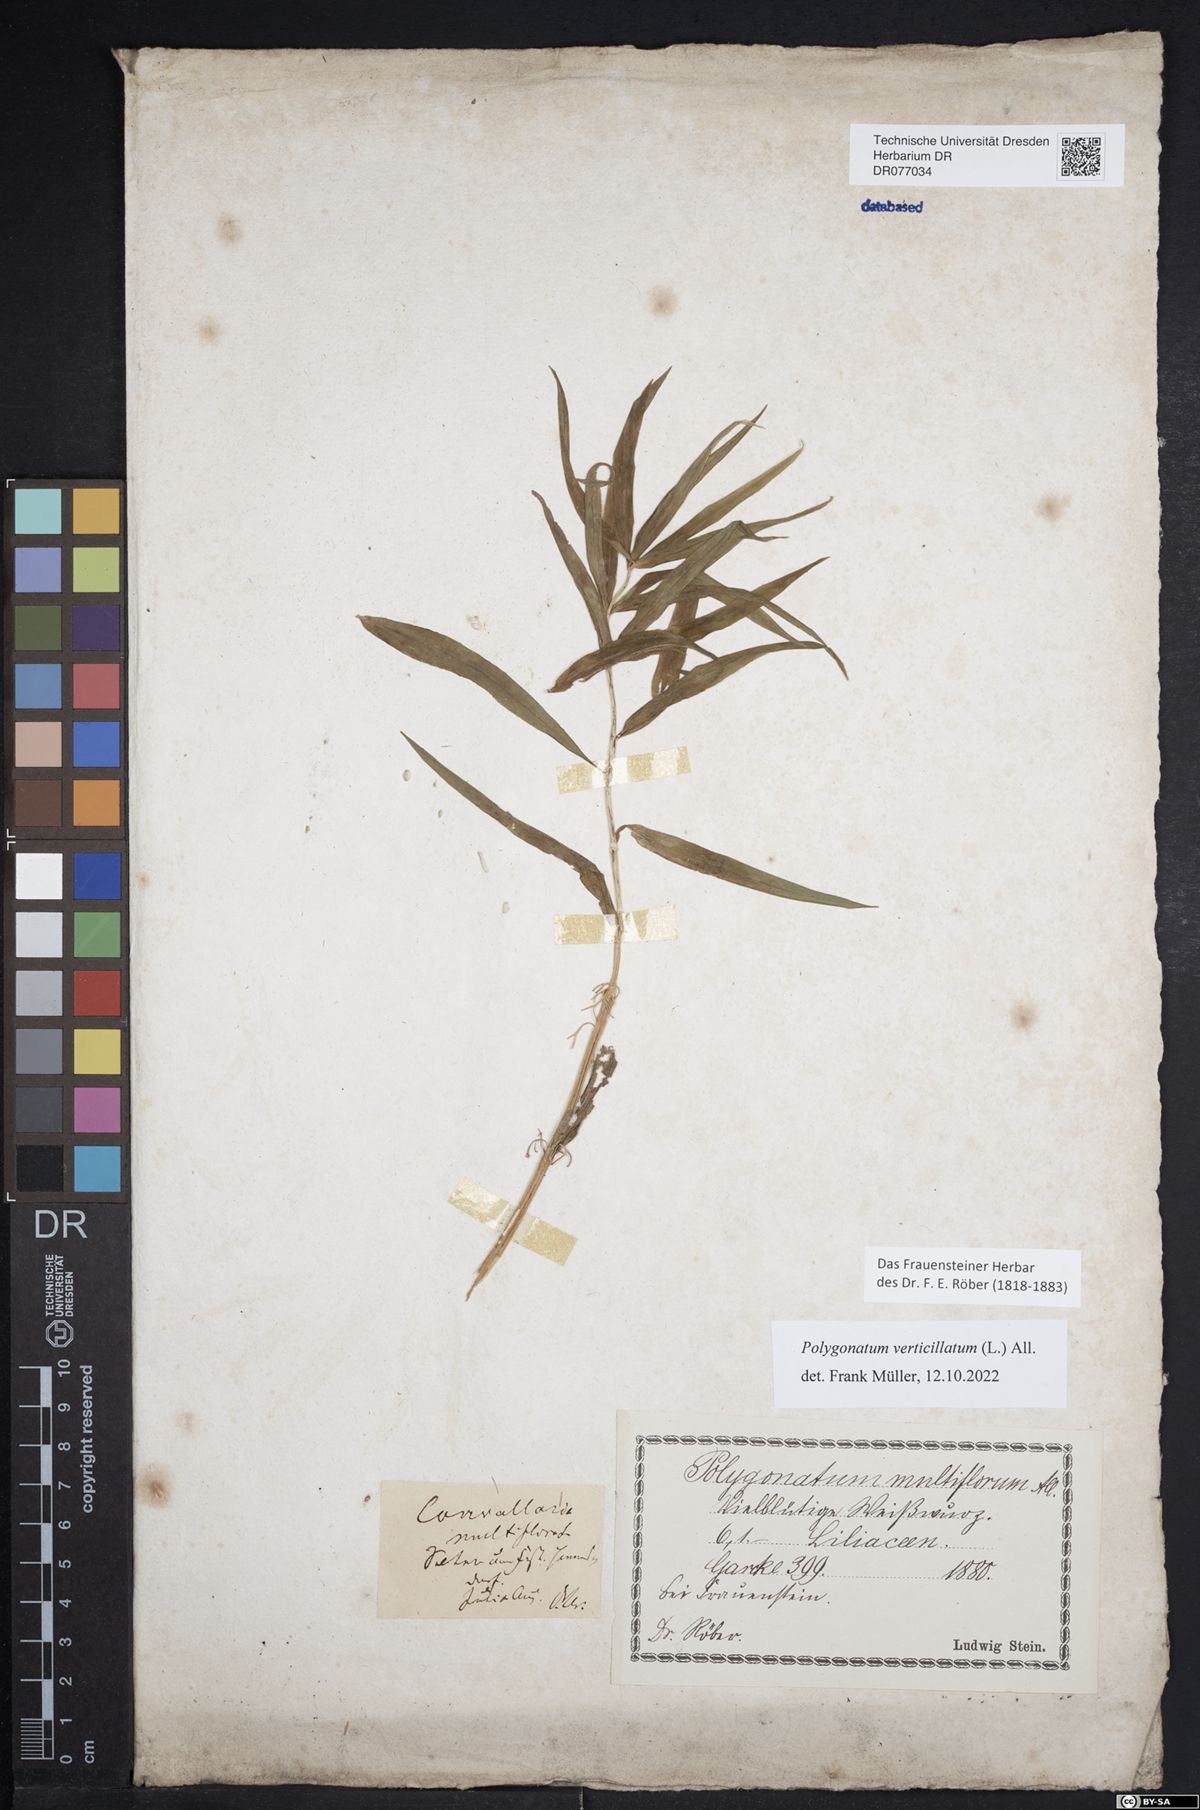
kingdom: Plantae
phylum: Tracheophyta
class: Liliopsida
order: Asparagales
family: Asparagaceae
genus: Polygonatum
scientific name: Polygonatum verticillatum
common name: Whorled solomon's-seal
